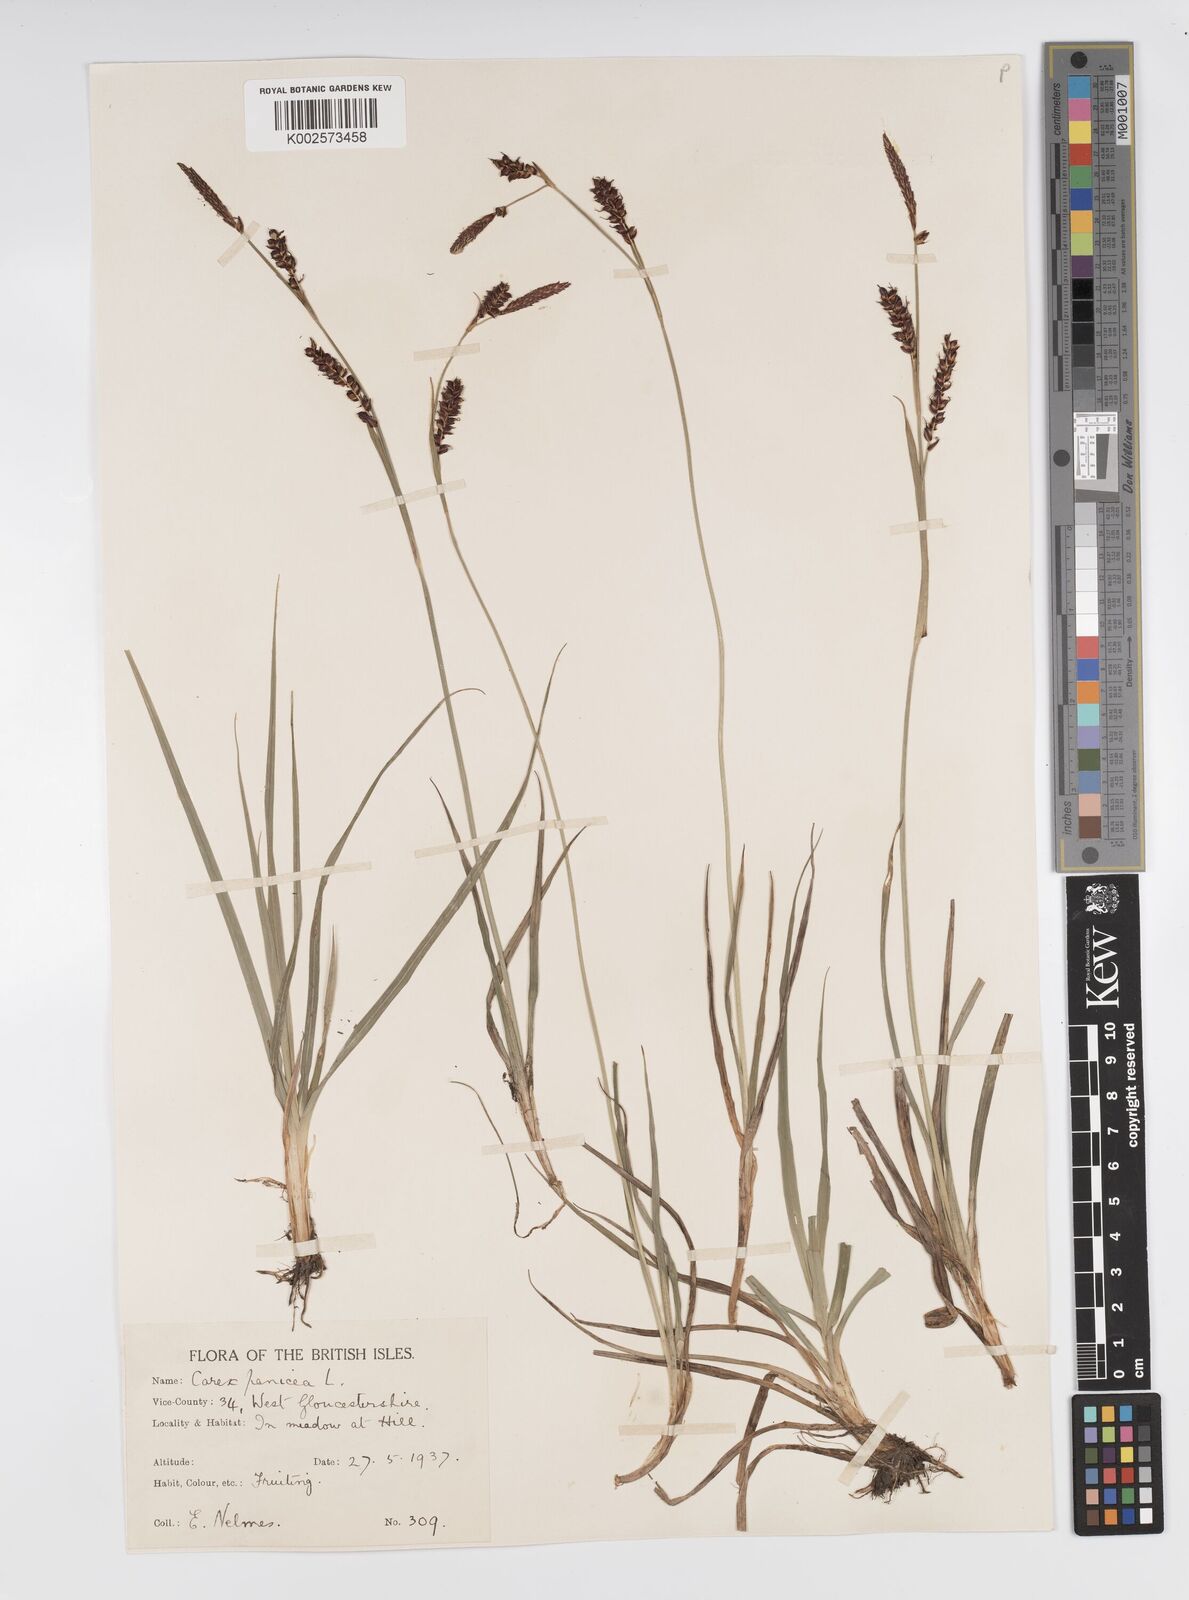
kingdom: Plantae
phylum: Tracheophyta
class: Liliopsida
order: Poales
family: Cyperaceae
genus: Carex
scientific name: Carex panicea
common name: Carnation sedge
